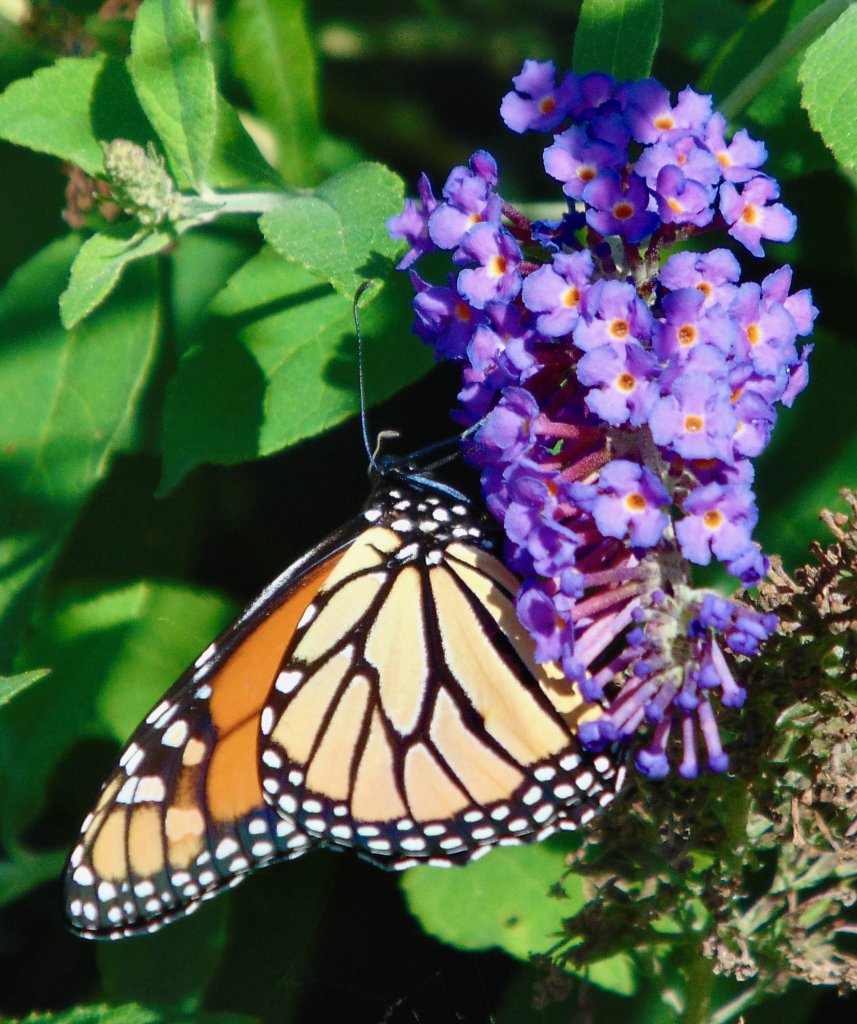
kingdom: Animalia
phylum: Arthropoda
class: Insecta
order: Lepidoptera
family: Nymphalidae
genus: Danaus
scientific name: Danaus plexippus
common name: Monarch
